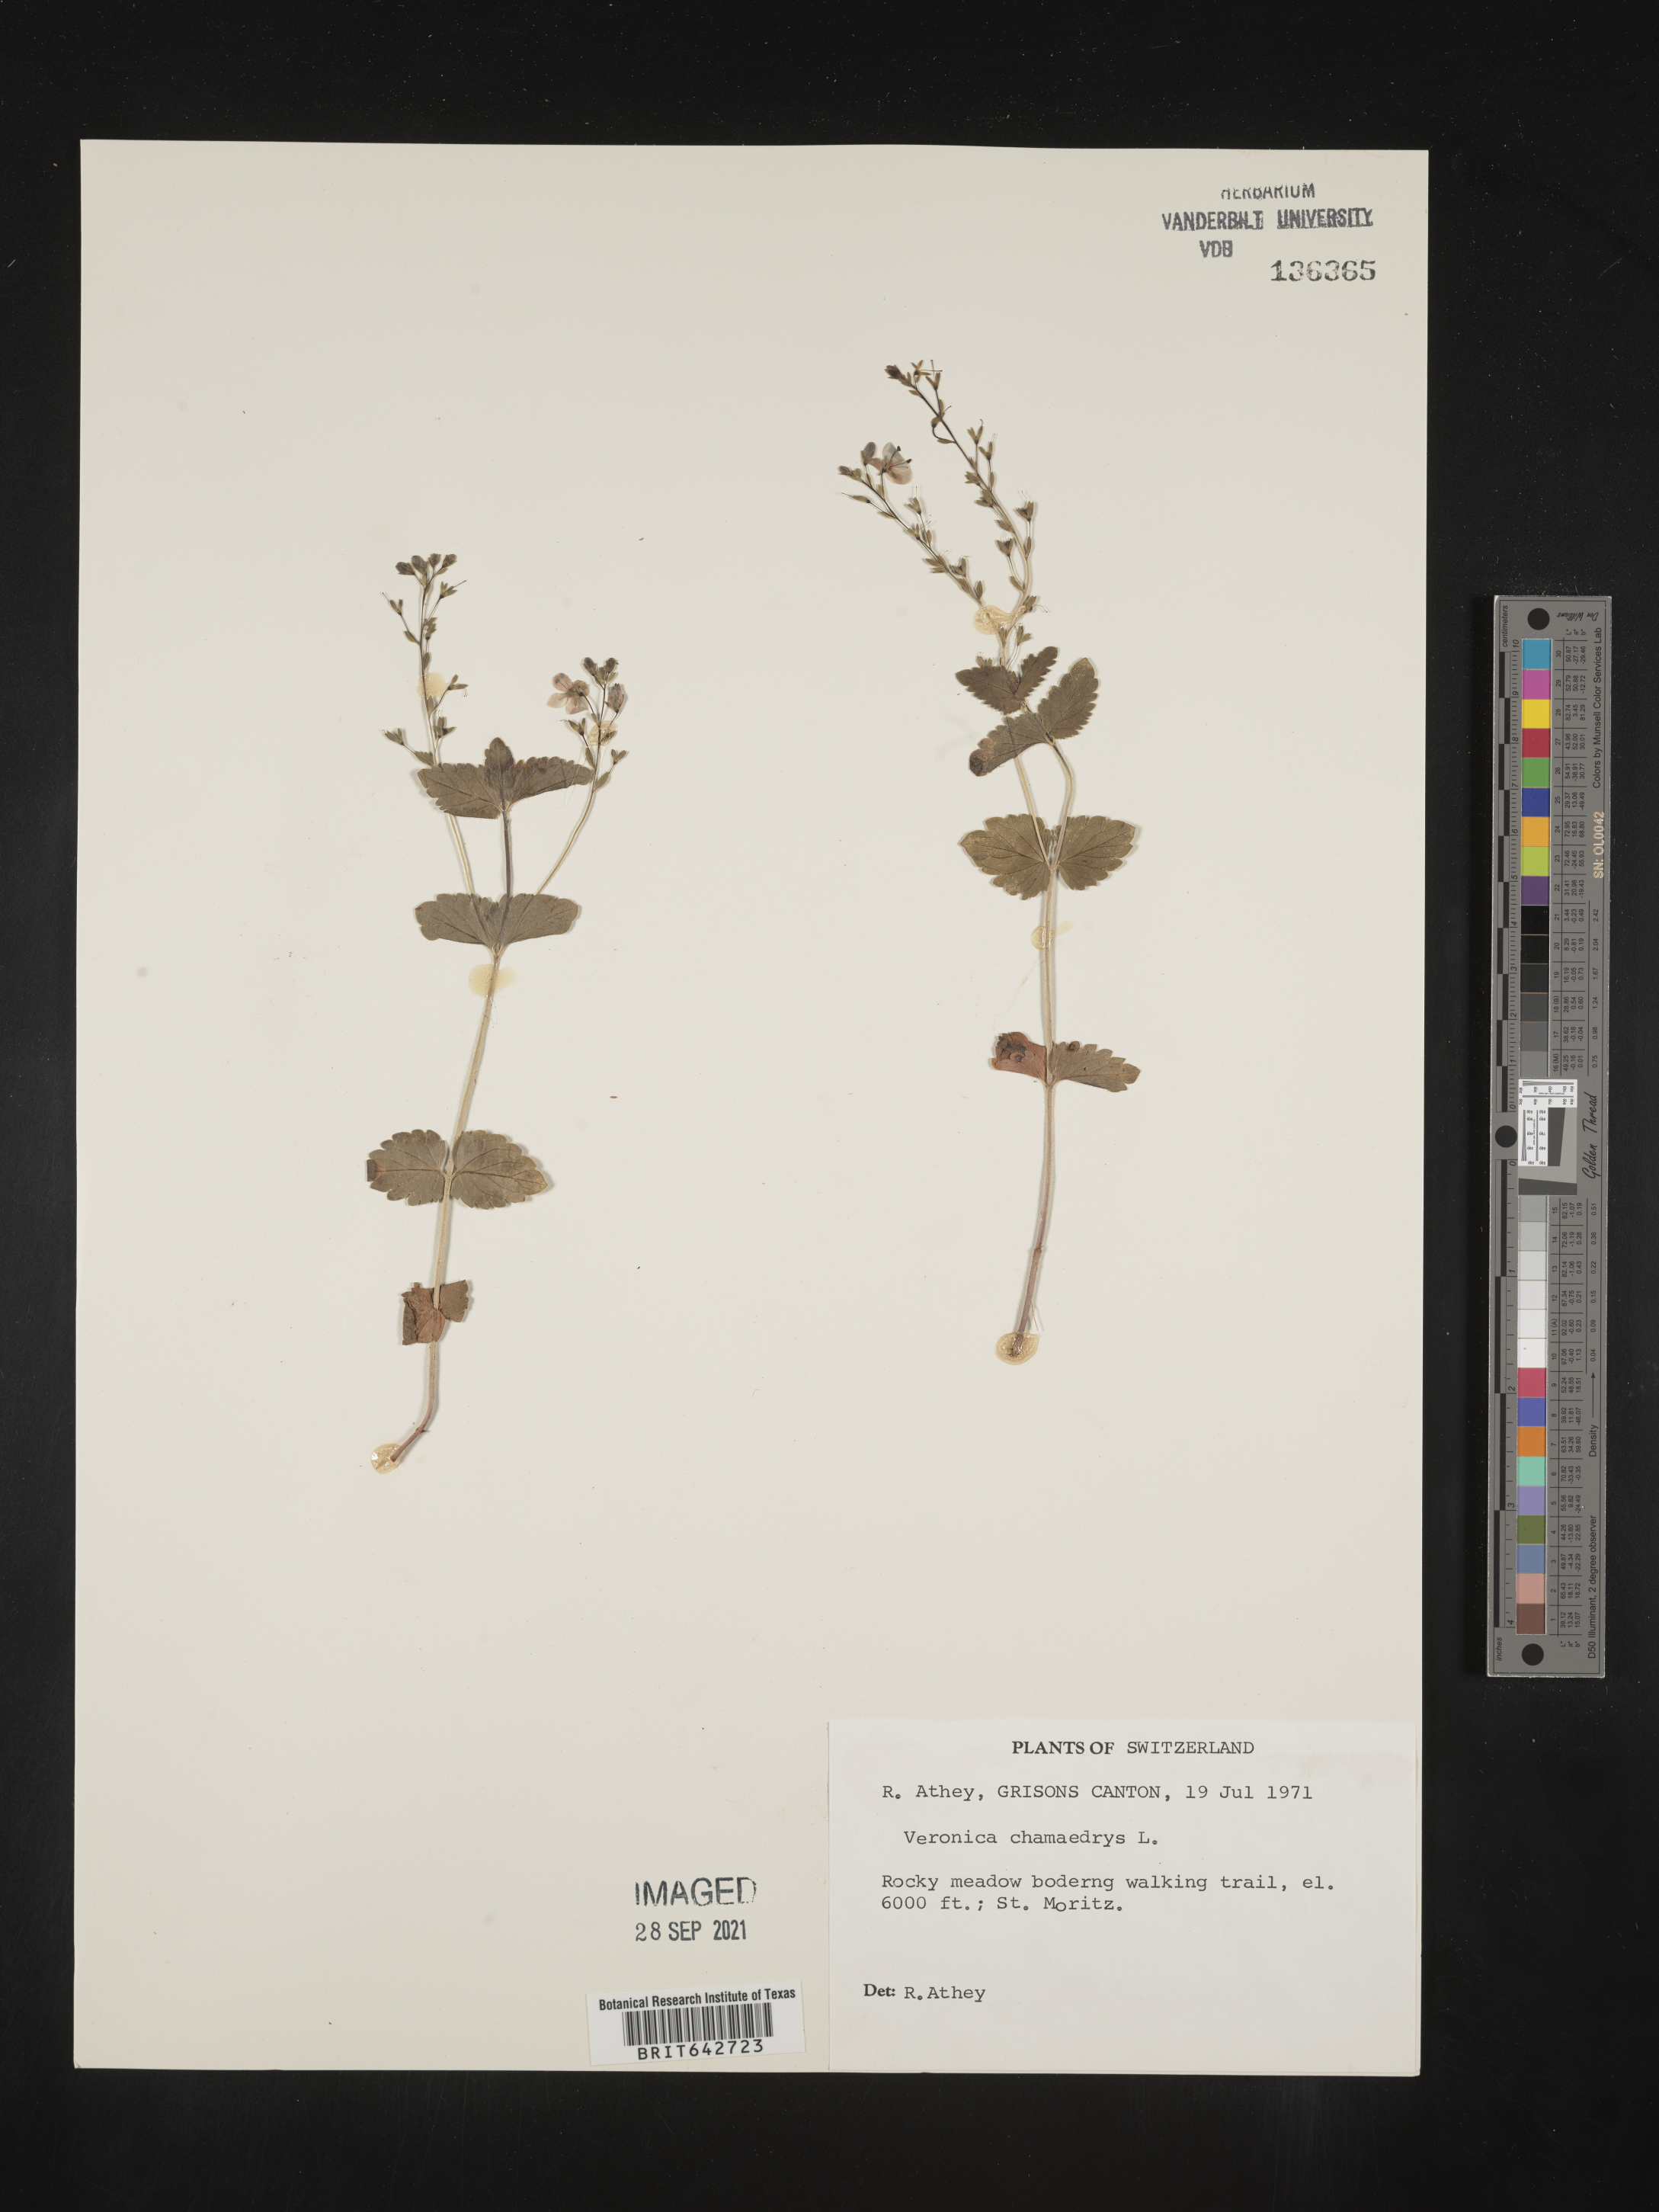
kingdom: Plantae
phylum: Tracheophyta
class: Magnoliopsida
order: Lamiales
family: Plantaginaceae
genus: Veronica
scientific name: Veronica
